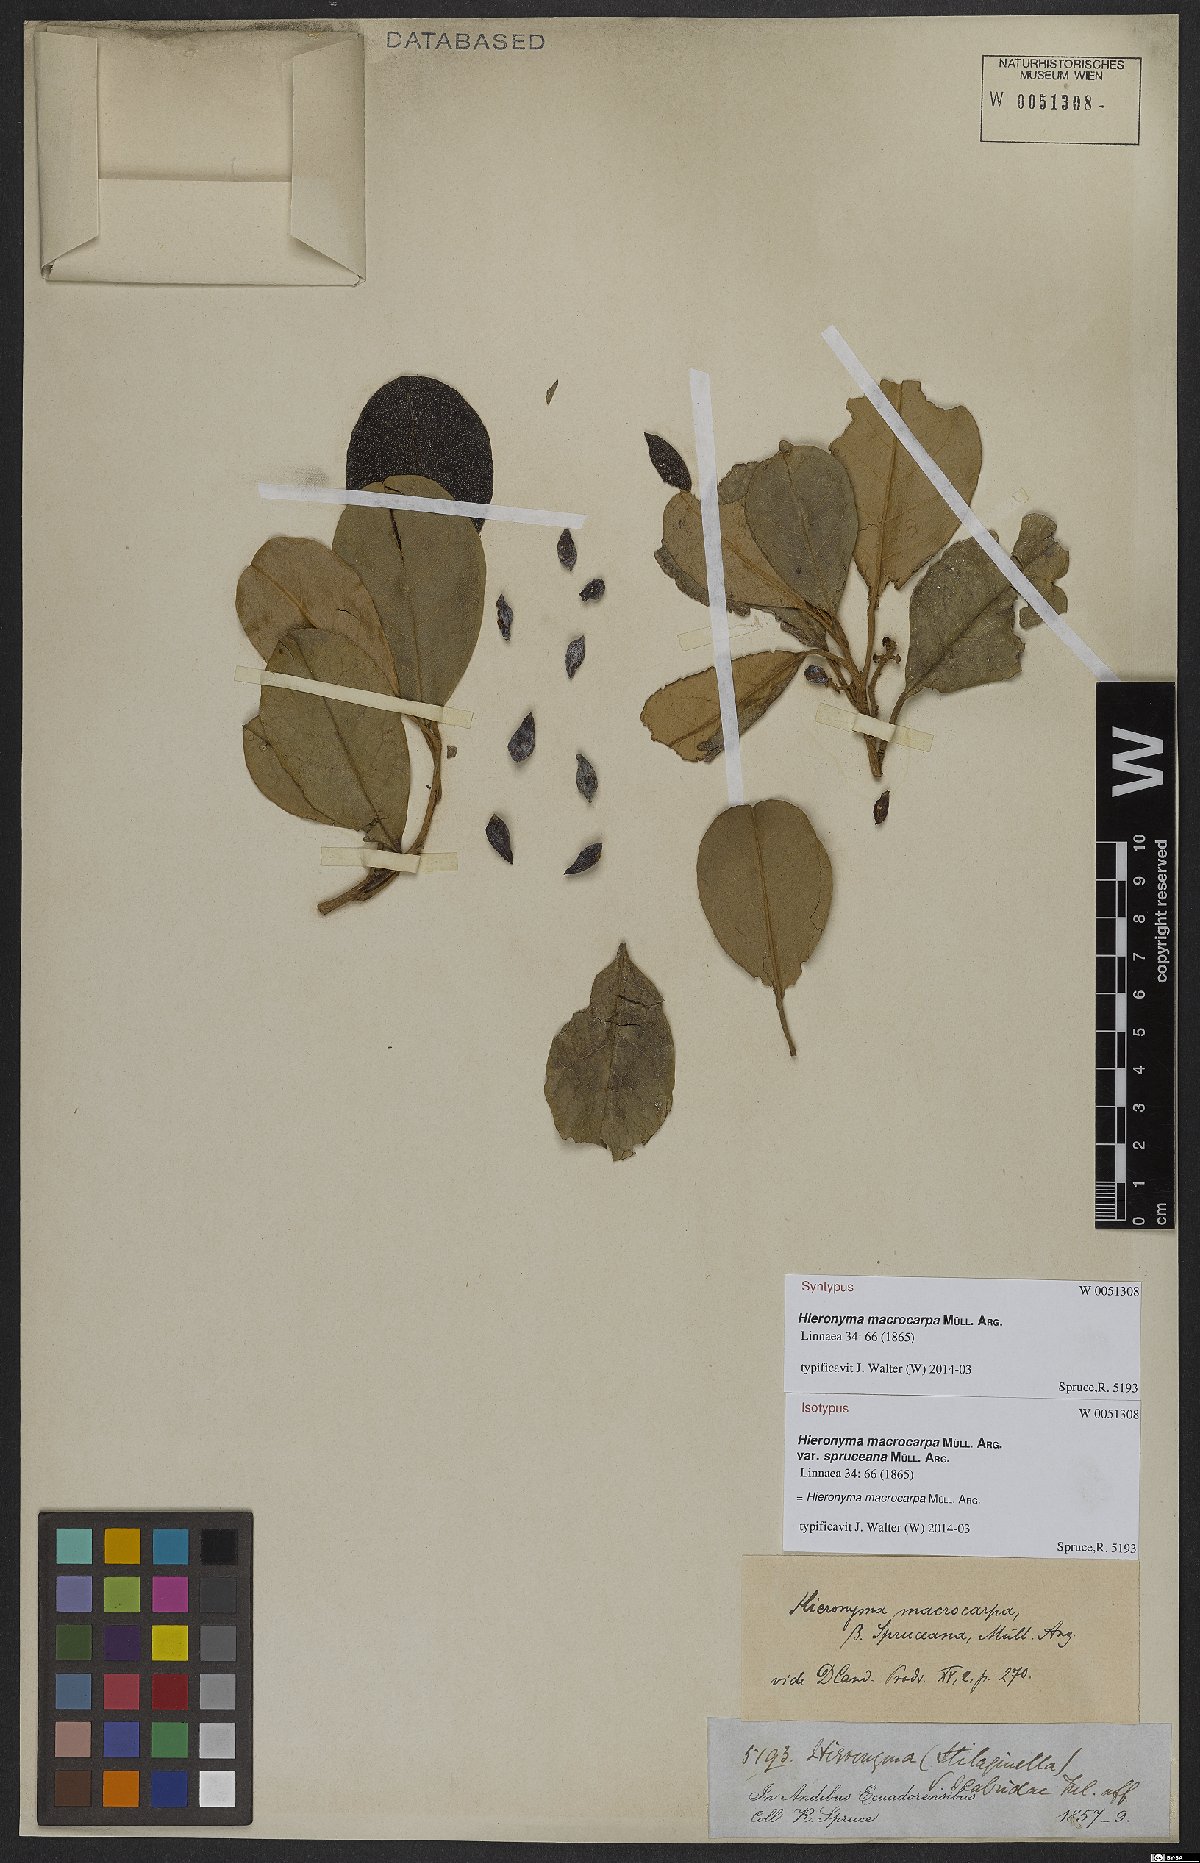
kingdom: Plantae
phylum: Tracheophyta
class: Magnoliopsida
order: Malpighiales
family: Phyllanthaceae
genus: Hieronyma
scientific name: Hieronyma macrocarpa
